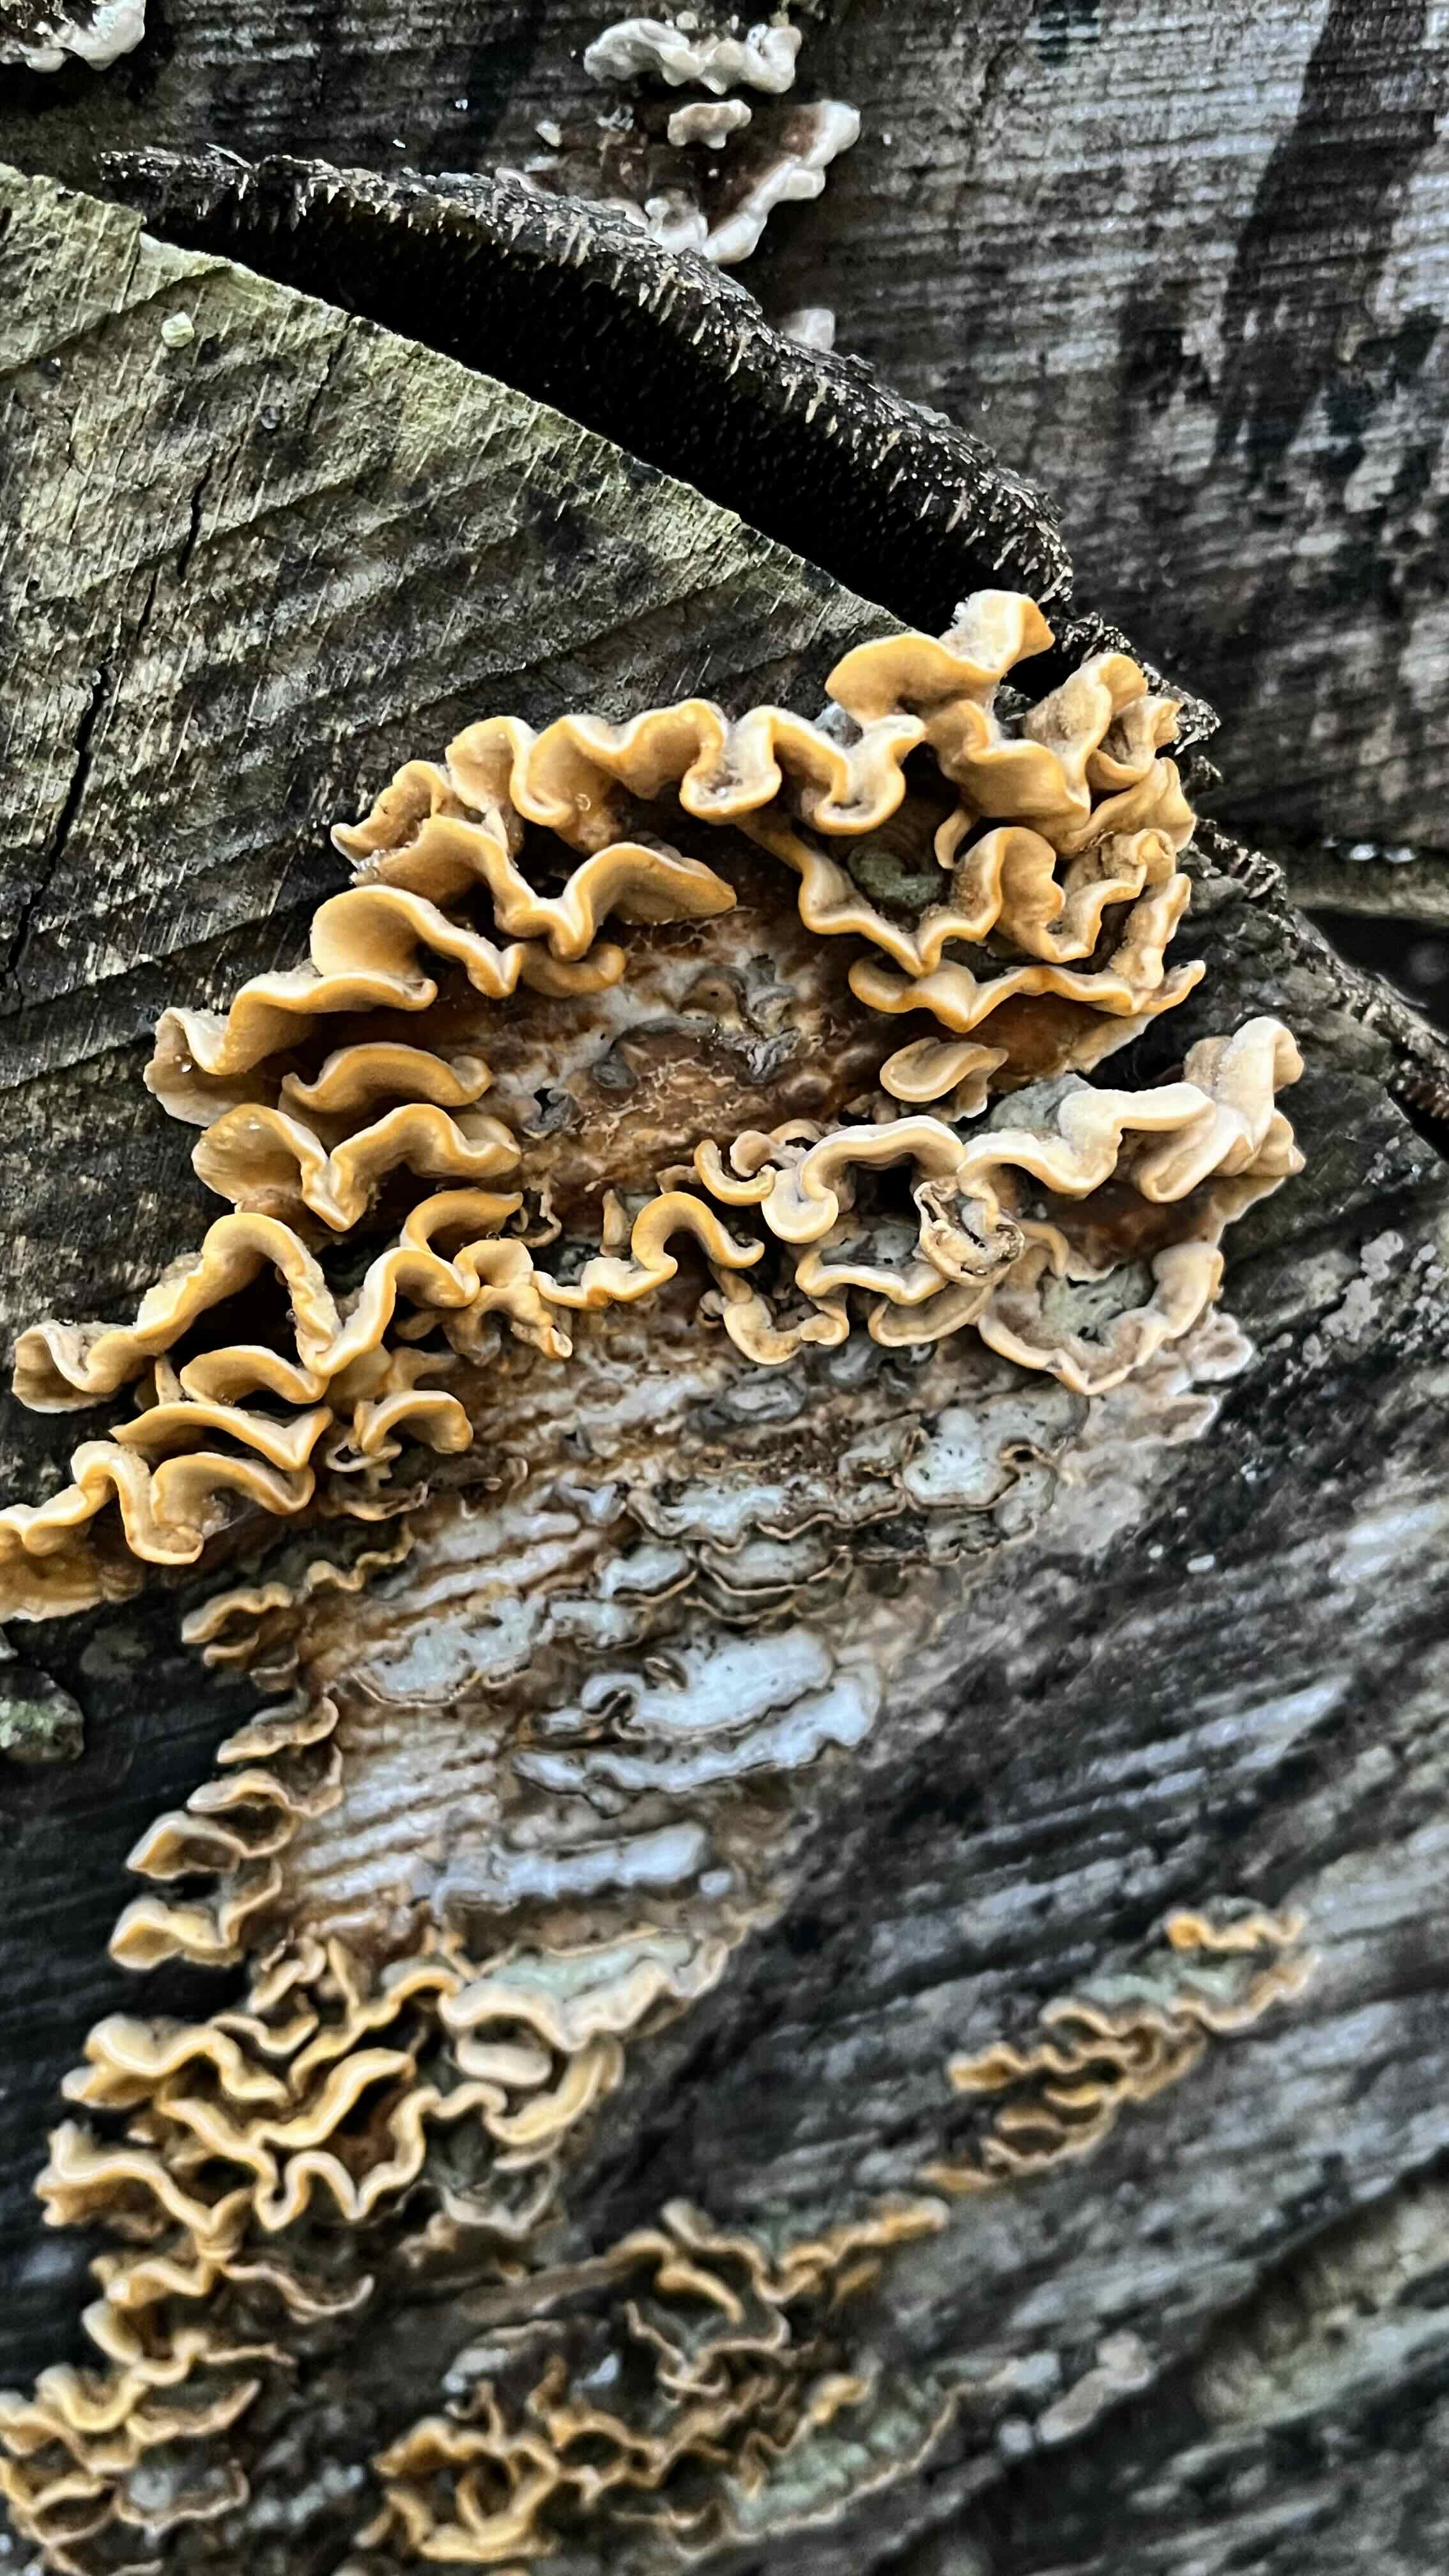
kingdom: Fungi
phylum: Basidiomycota
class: Agaricomycetes
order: Russulales
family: Stereaceae
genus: Stereum
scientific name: Stereum hirsutum
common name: håret lædersvamp
